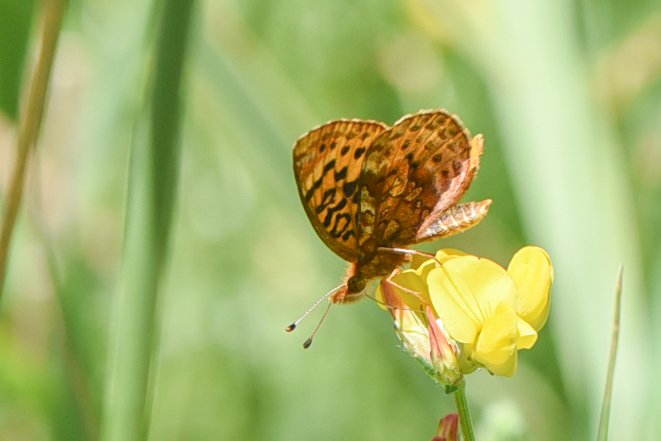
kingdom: Animalia
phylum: Arthropoda
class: Insecta
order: Lepidoptera
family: Nymphalidae
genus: Clossiana
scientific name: Clossiana toddi
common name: Meadow Fritillary
